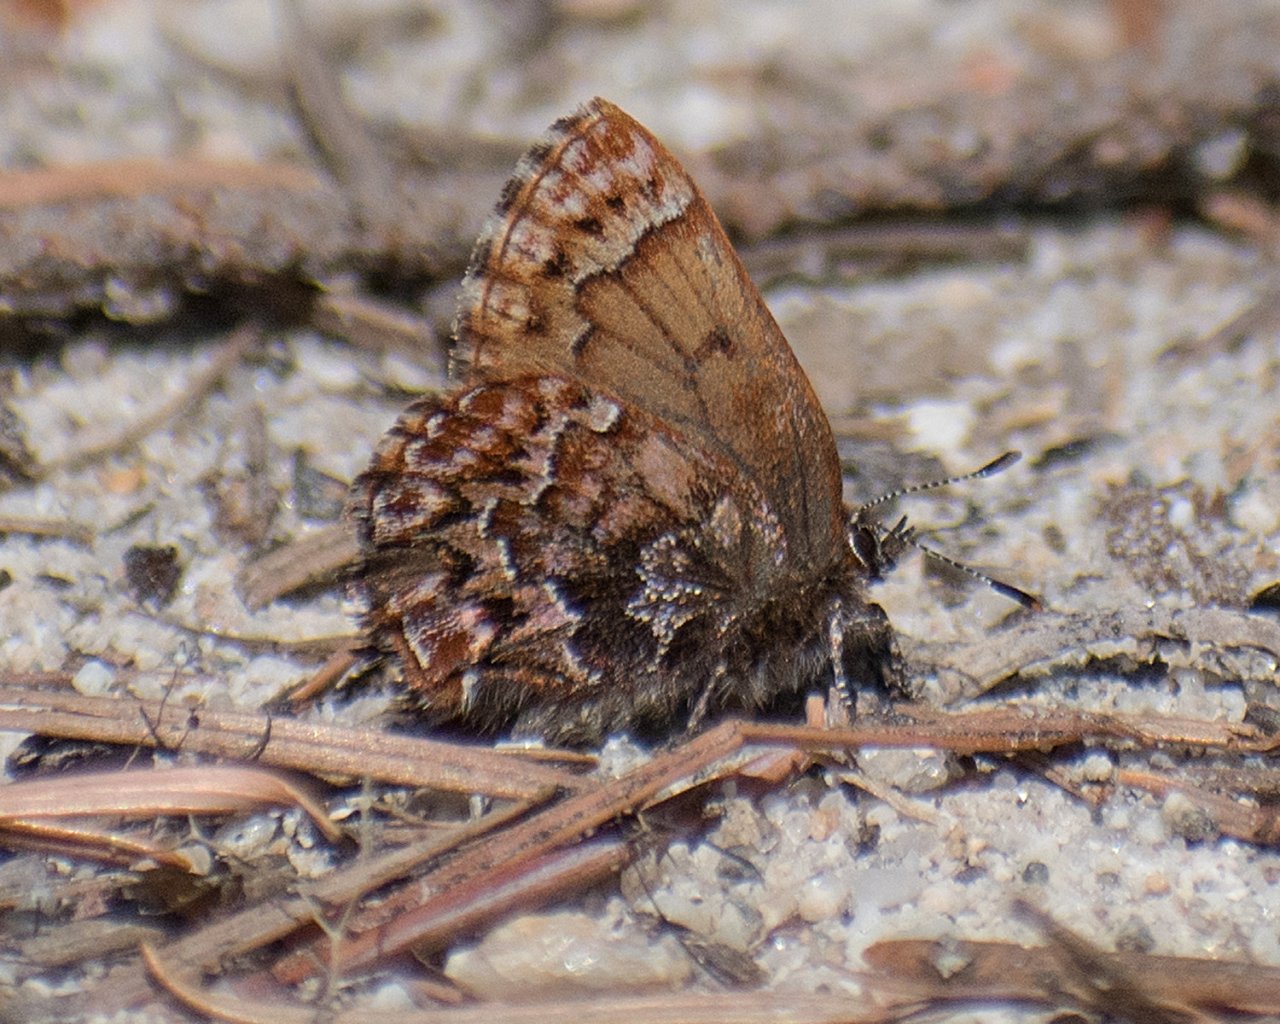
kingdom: Animalia
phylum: Arthropoda
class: Insecta
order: Lepidoptera
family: Lycaenidae
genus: Incisalia
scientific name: Incisalia eryphon
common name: Western Pine Elfin
